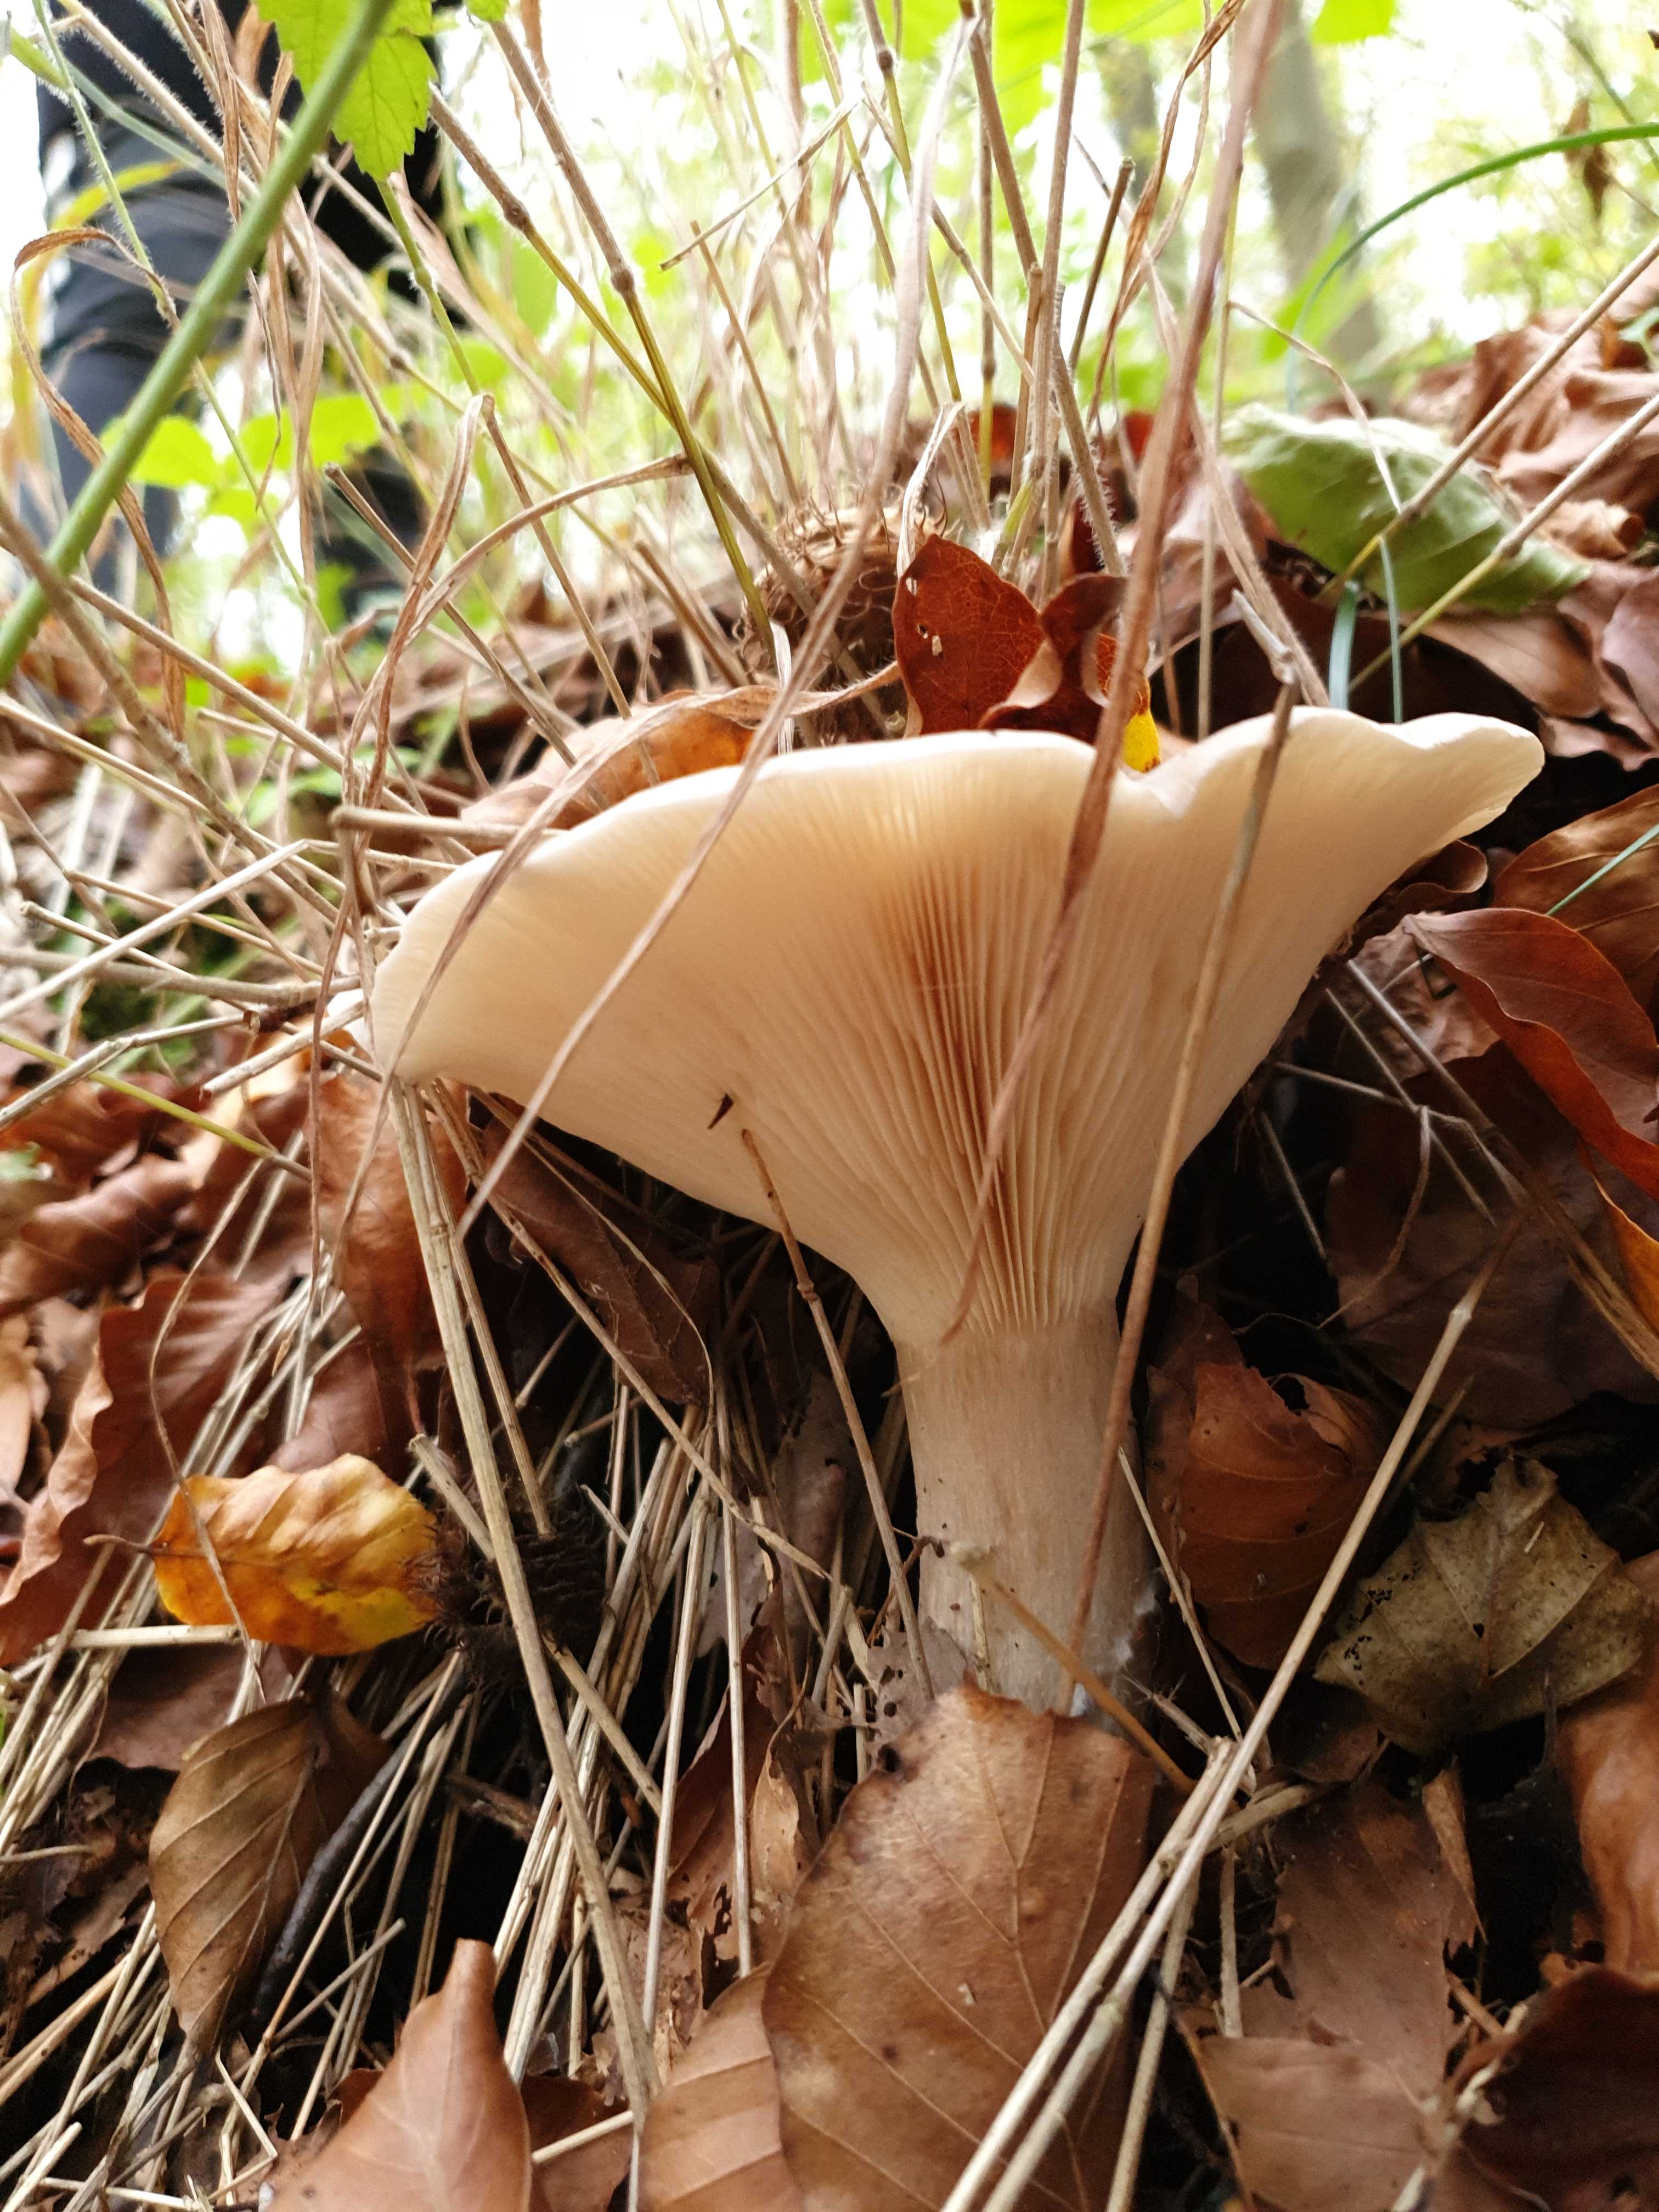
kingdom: Fungi
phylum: Basidiomycota
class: Agaricomycetes
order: Agaricales
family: Tricholomataceae
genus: Clitocybe
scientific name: Clitocybe nebularis
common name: tåge-tragthat
